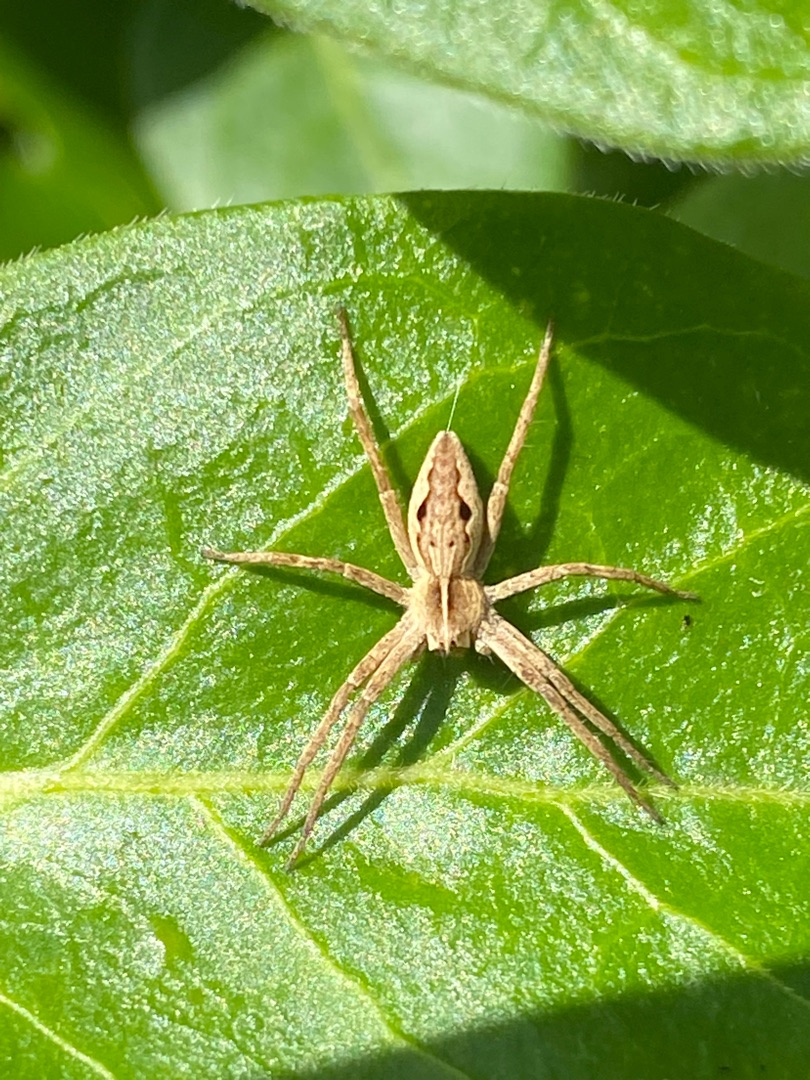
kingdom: Animalia
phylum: Arthropoda
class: Arachnida
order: Araneae
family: Pisauridae
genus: Pisaura
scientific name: Pisaura mirabilis
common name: Almindelig rovedderkop
